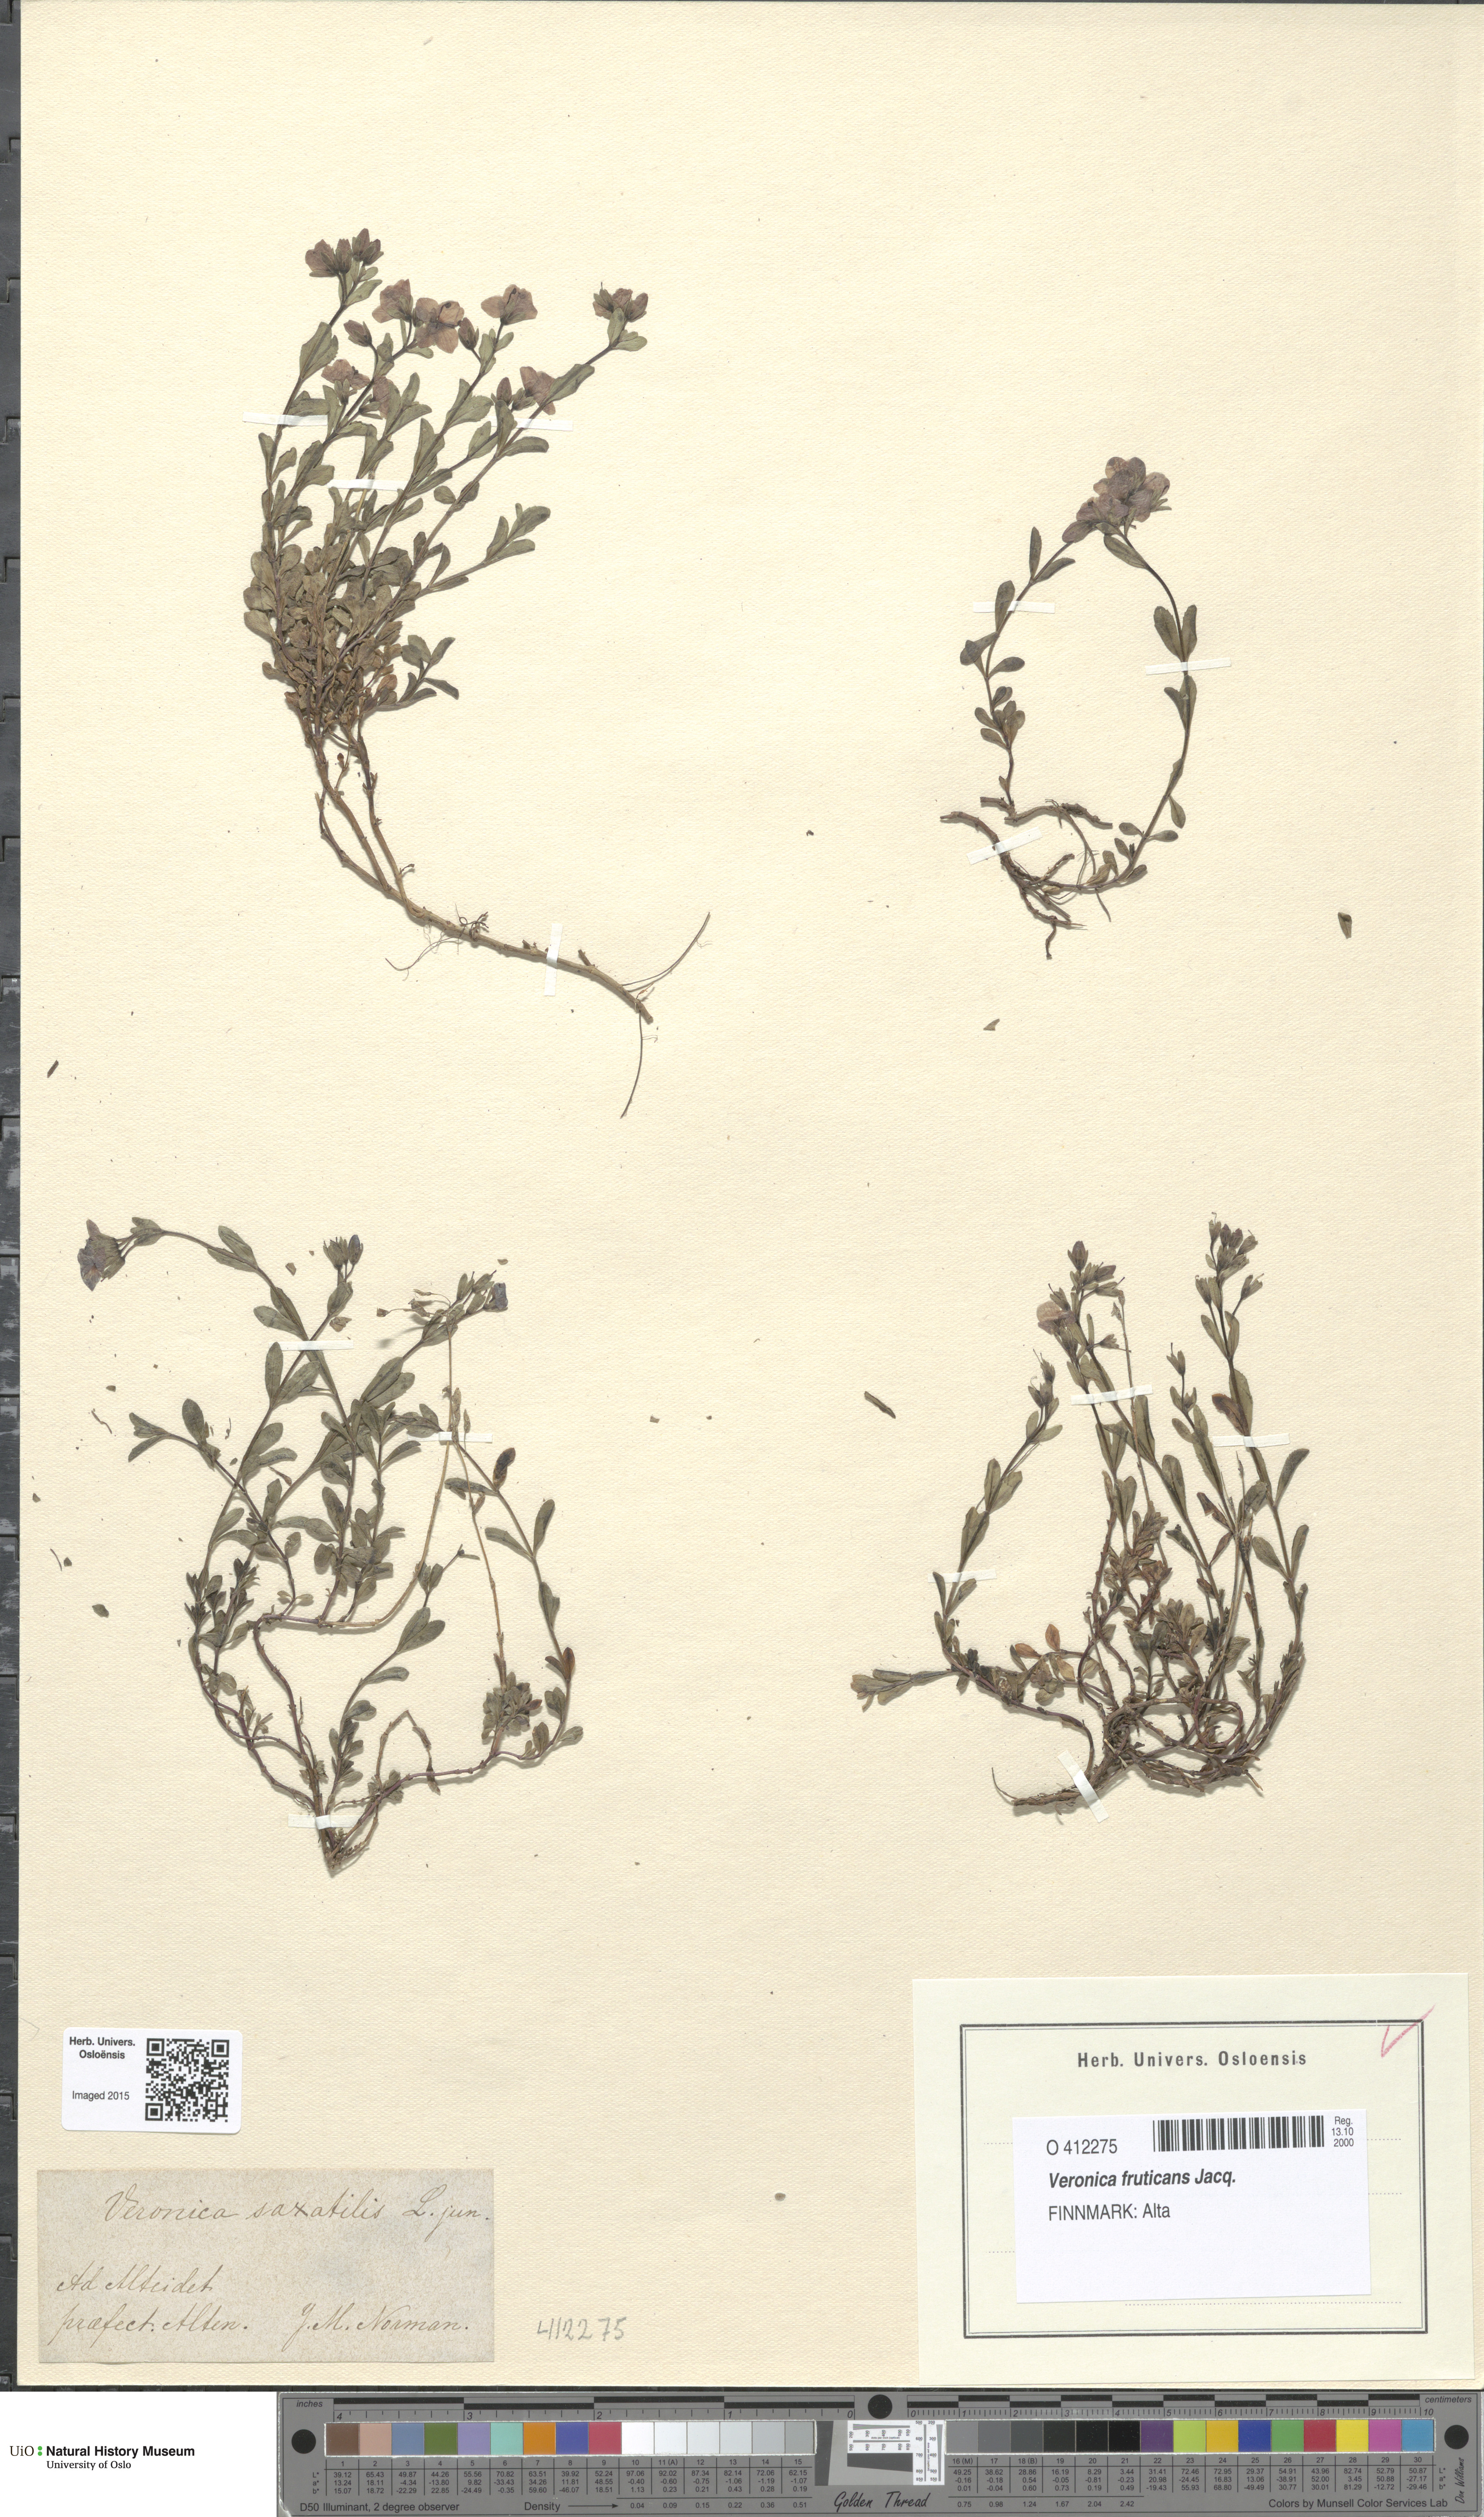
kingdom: Plantae
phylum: Tracheophyta
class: Magnoliopsida
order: Lamiales
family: Plantaginaceae
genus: Veronica
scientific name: Veronica fruticans
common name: Rock speedwell
